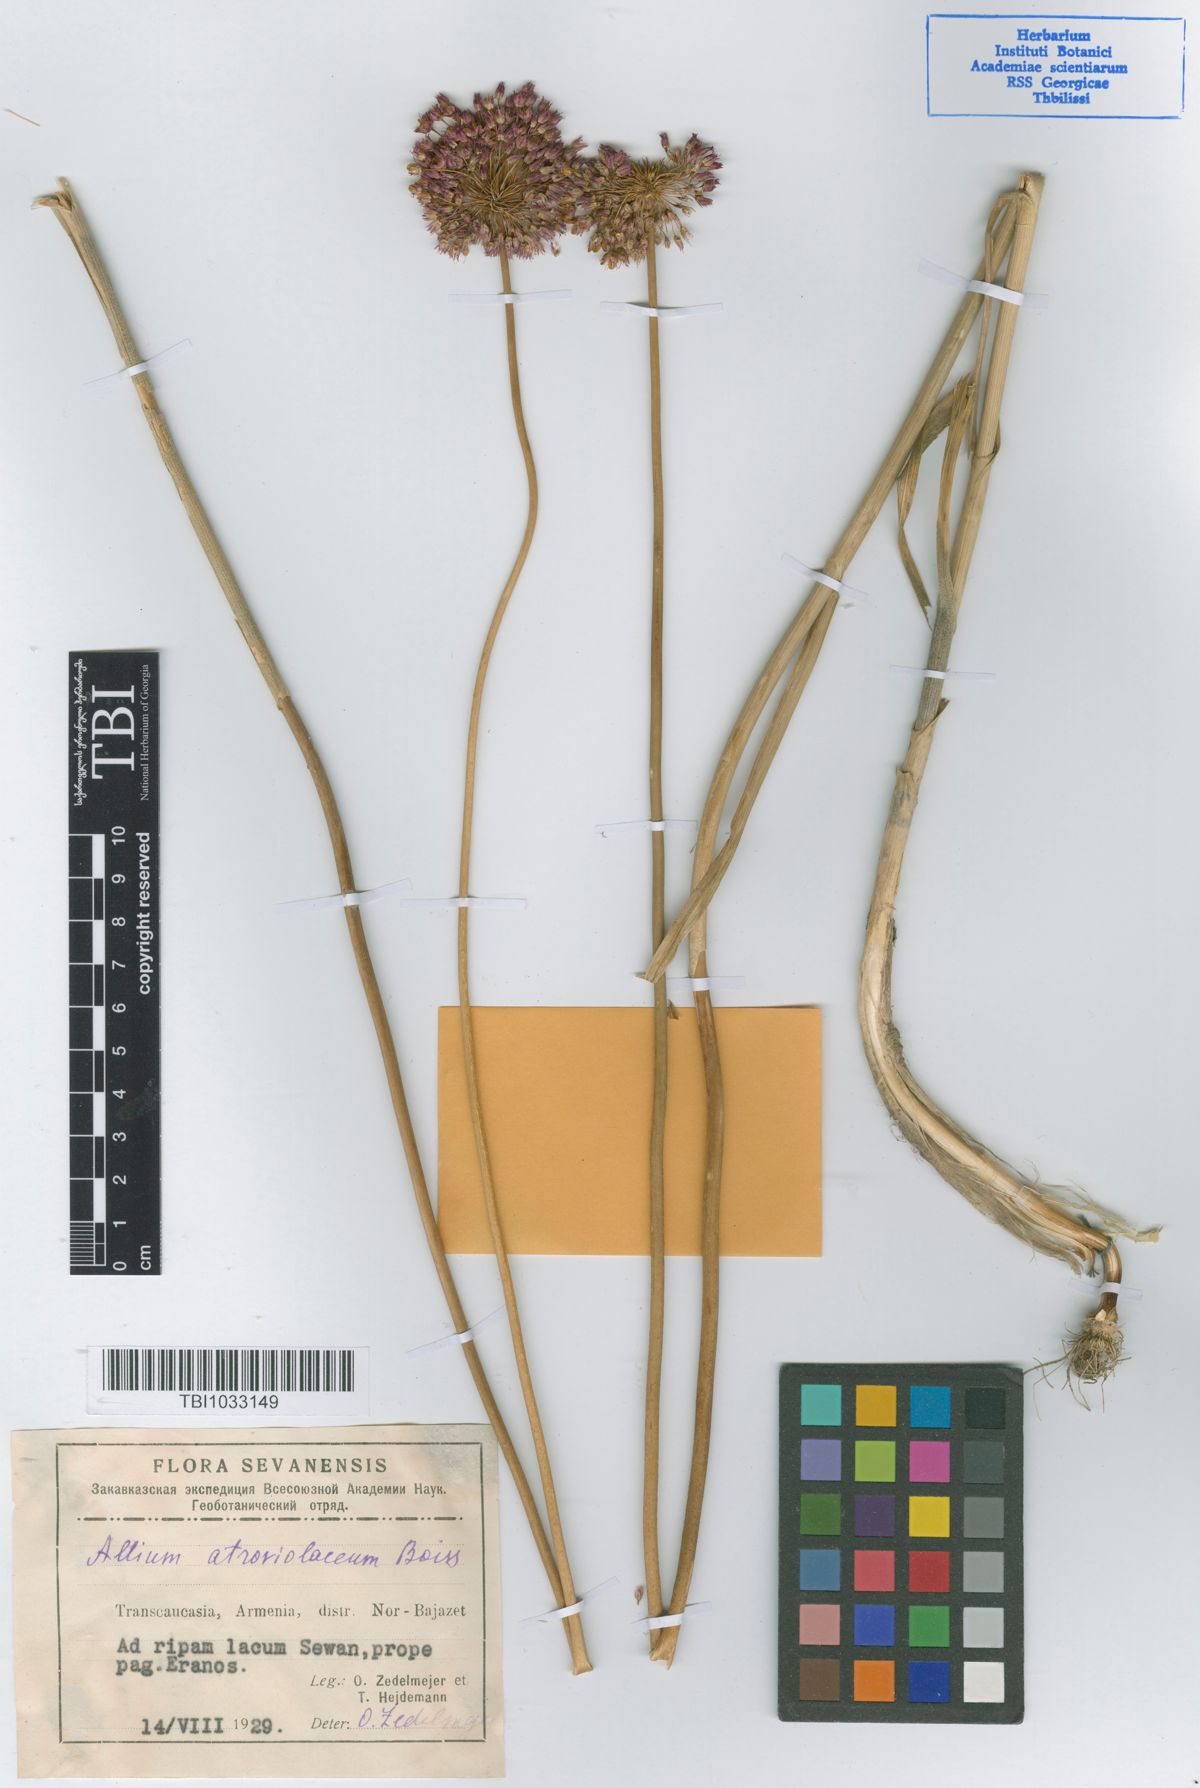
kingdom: Plantae
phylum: Tracheophyta
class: Liliopsida
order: Asparagales
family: Amaryllidaceae
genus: Allium
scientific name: Allium atroviolaceum
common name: Broadleaf wild leek
